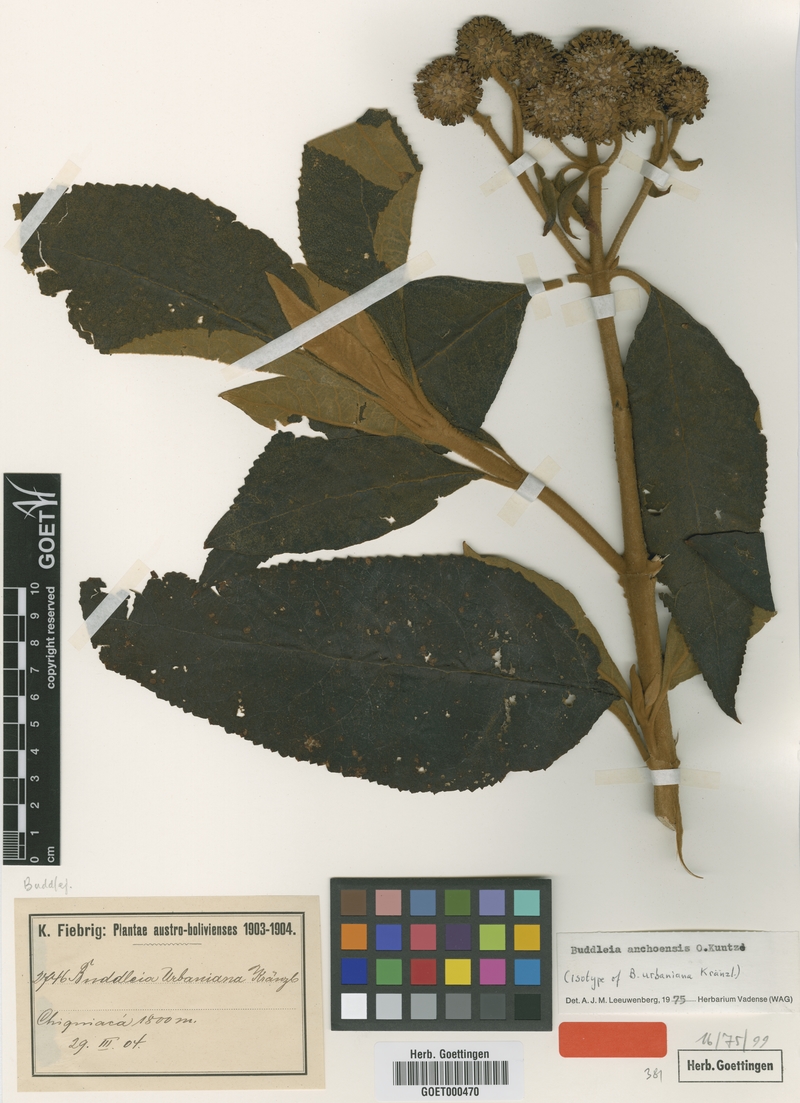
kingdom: Plantae
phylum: Tracheophyta
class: Magnoliopsida
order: Lamiales
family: Scrophulariaceae
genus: Buddleja
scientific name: Buddleja anchoensis
